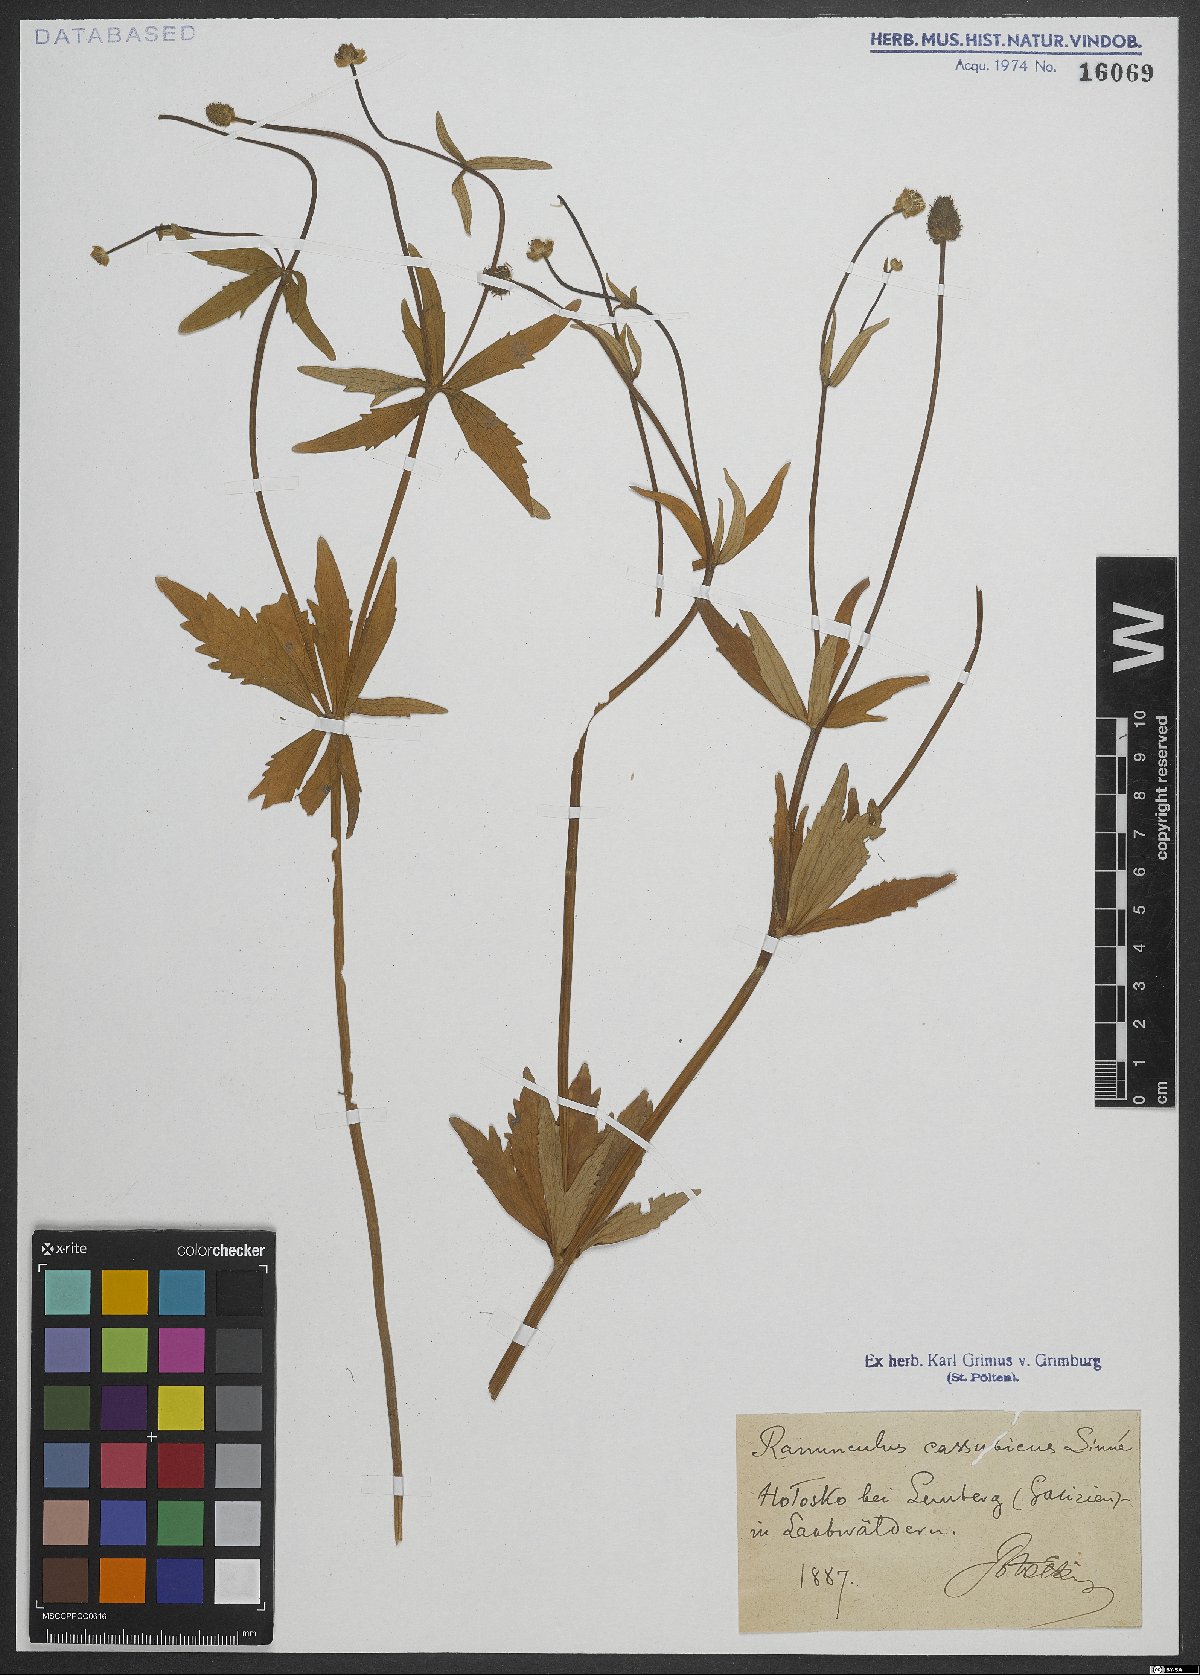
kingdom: Plantae
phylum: Tracheophyta
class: Magnoliopsida
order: Ranunculales
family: Ranunculaceae
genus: Ranunculus
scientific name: Ranunculus cassubicus
